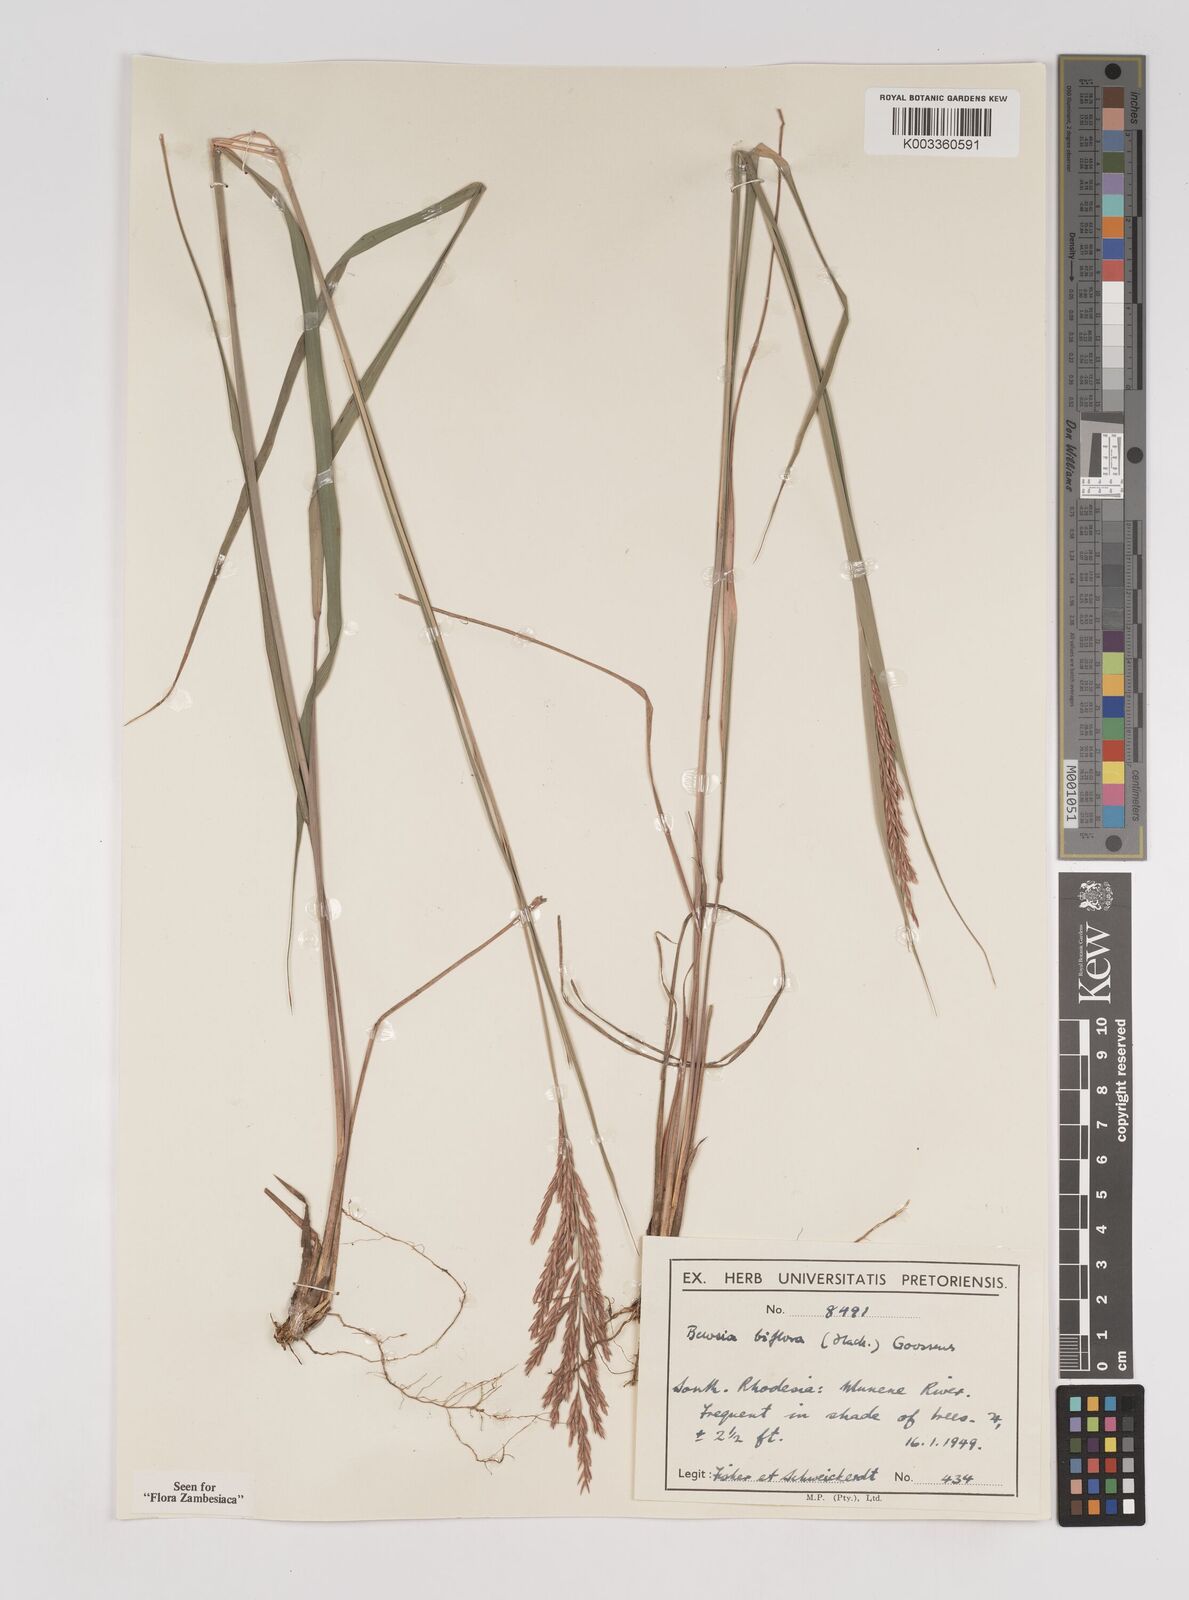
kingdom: Plantae
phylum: Tracheophyta
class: Liliopsida
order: Poales
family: Poaceae
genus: Bewsia
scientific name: Bewsia biflora
